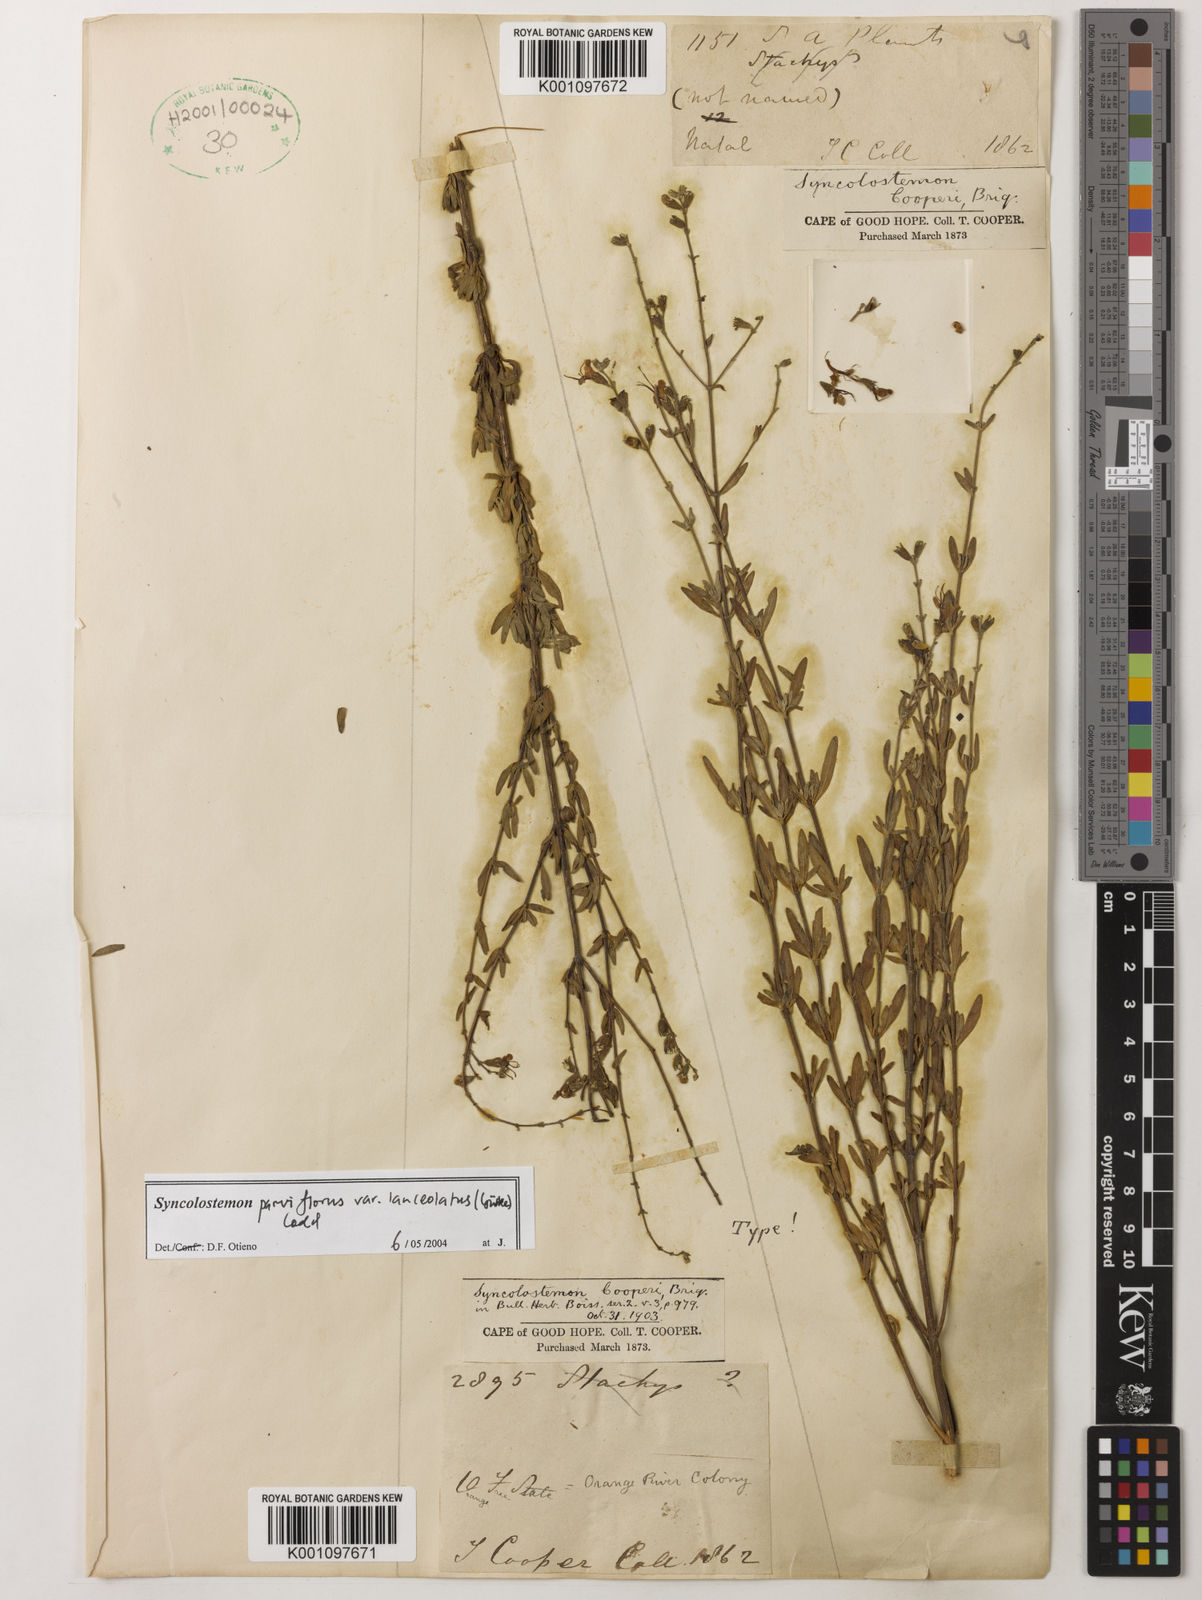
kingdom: Plantae
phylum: Tracheophyta
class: Magnoliopsida
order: Lamiales
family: Lamiaceae
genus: Syncolostemon
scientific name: Syncolostemon parviflorus
